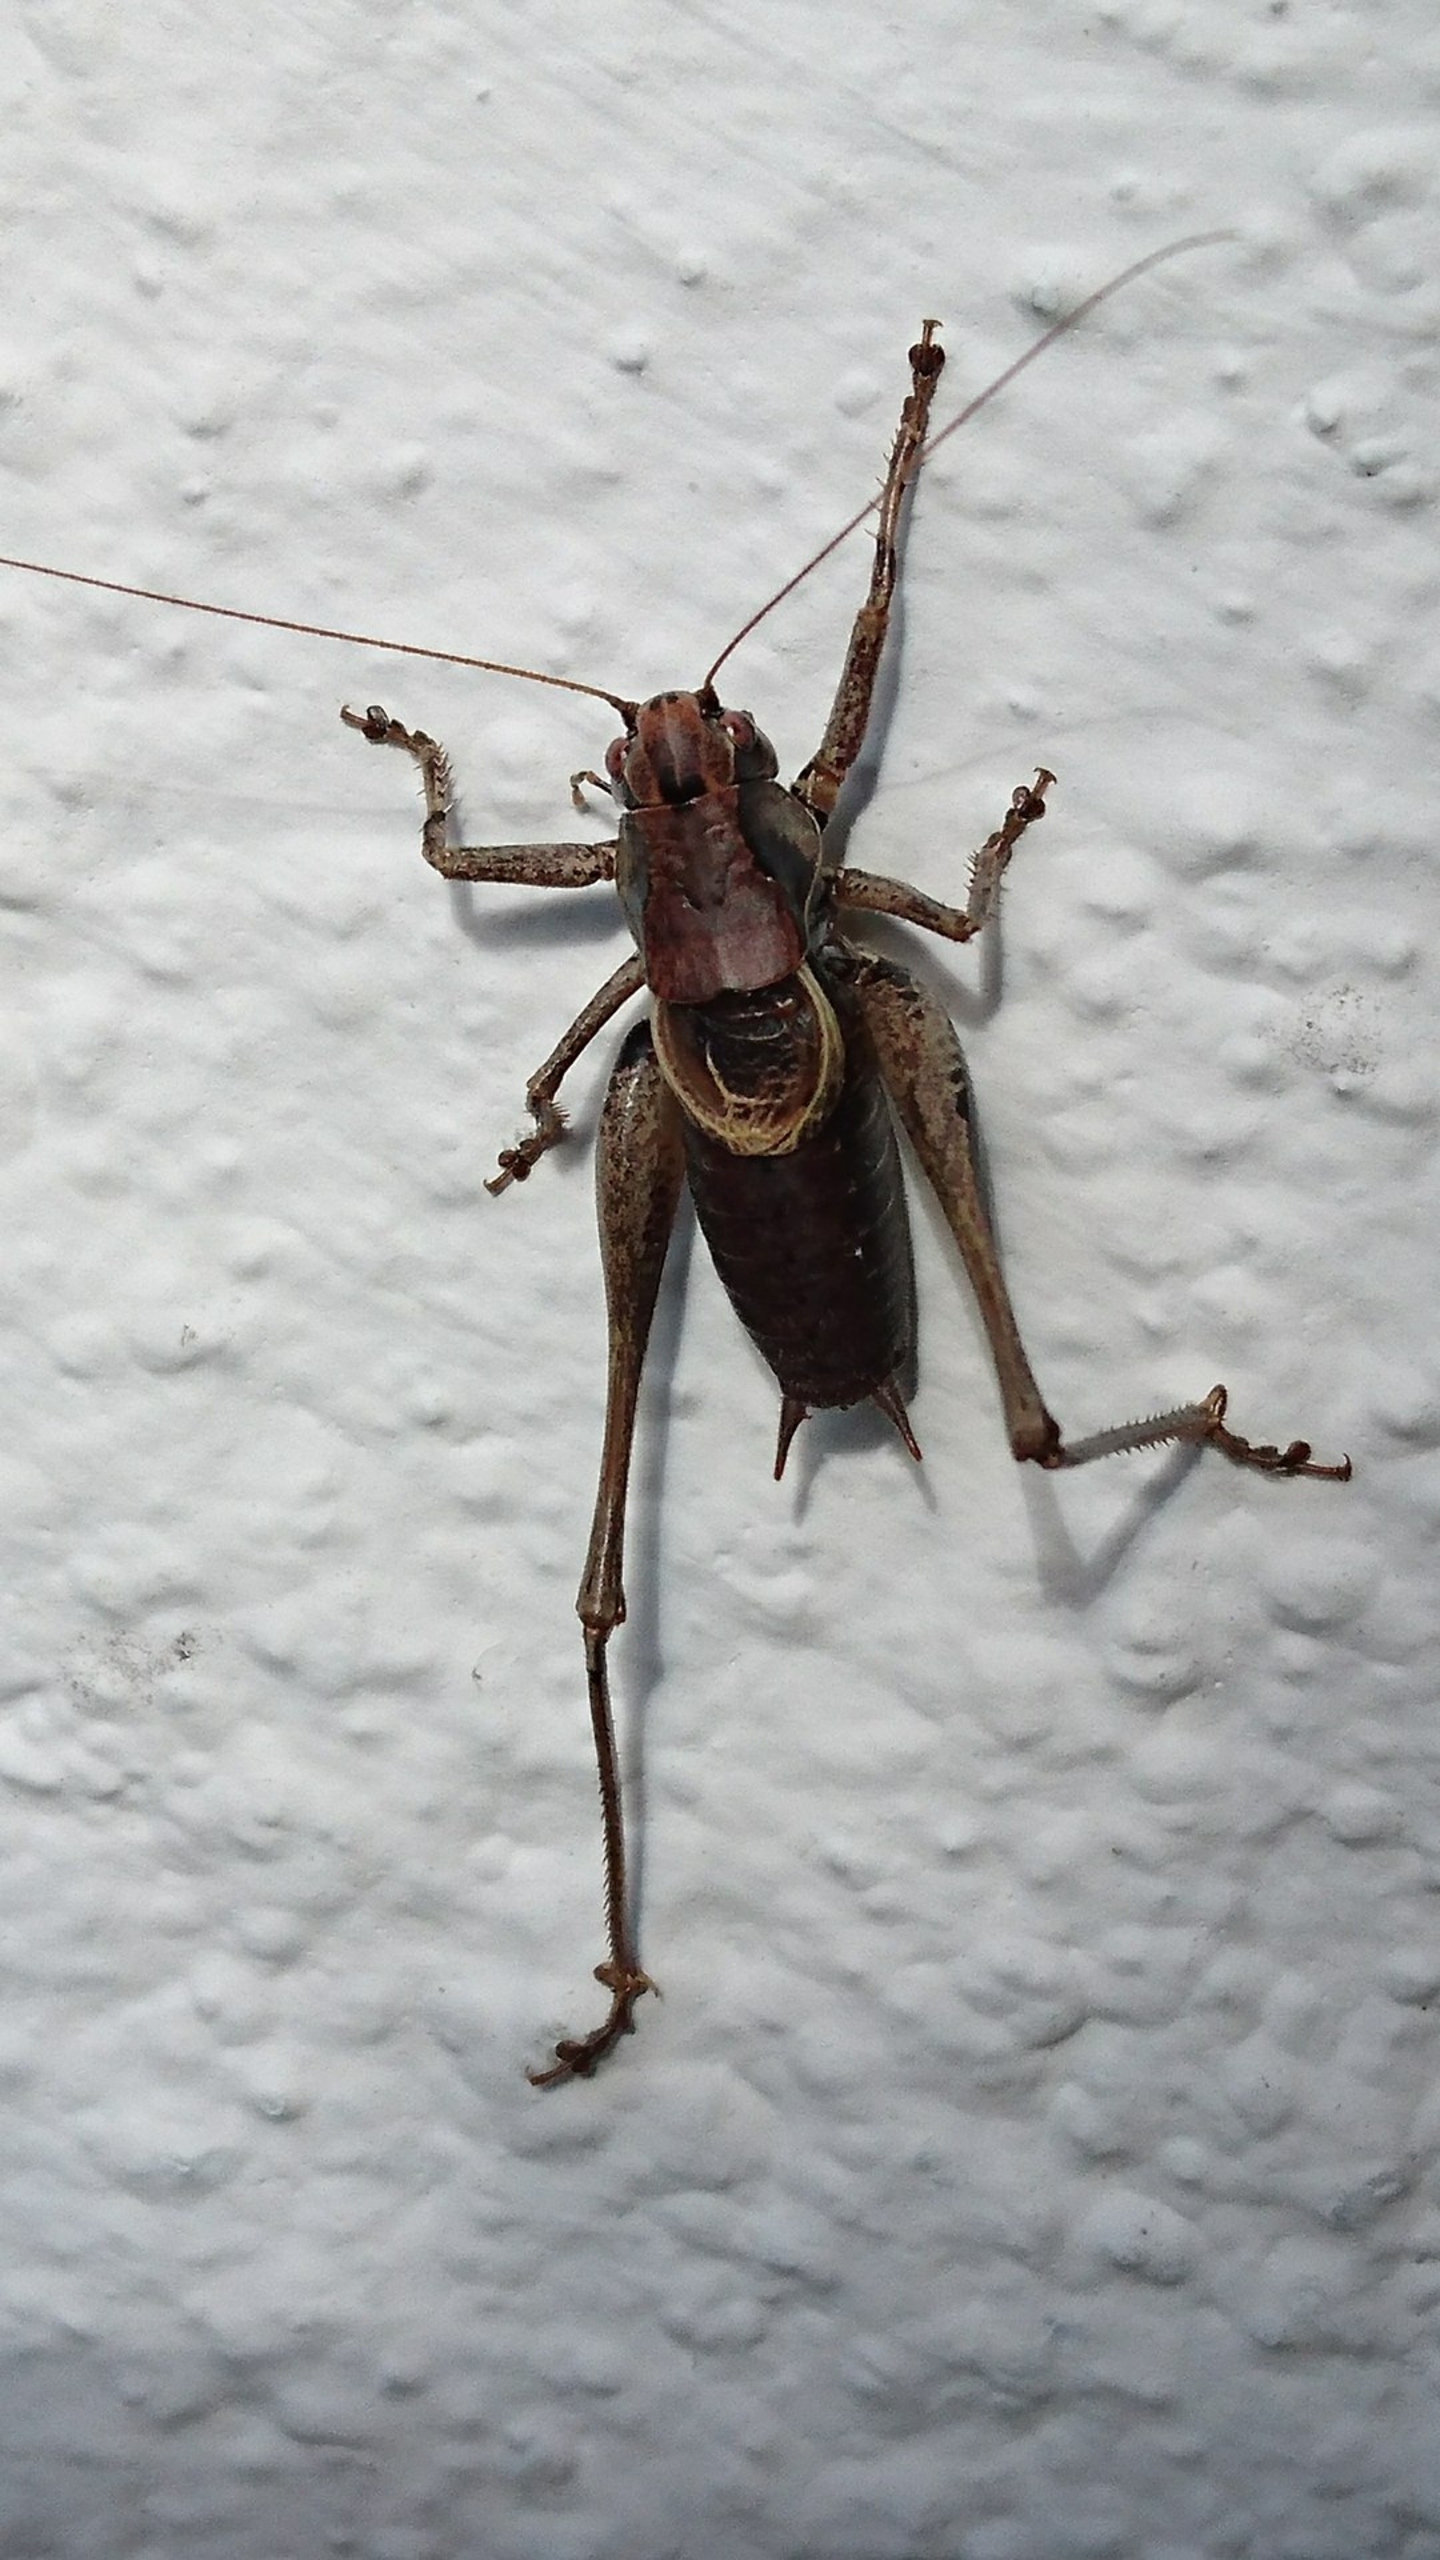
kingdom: Animalia
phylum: Arthropoda
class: Insecta
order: Orthoptera
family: Tettigoniidae
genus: Pholidoptera
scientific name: Pholidoptera griseoaptera
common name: Buskgræshoppe
